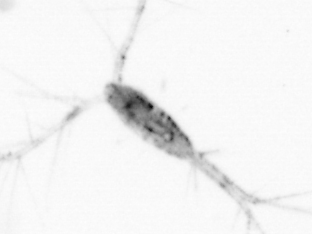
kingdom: Animalia
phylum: Arthropoda
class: Copepoda
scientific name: Copepoda
